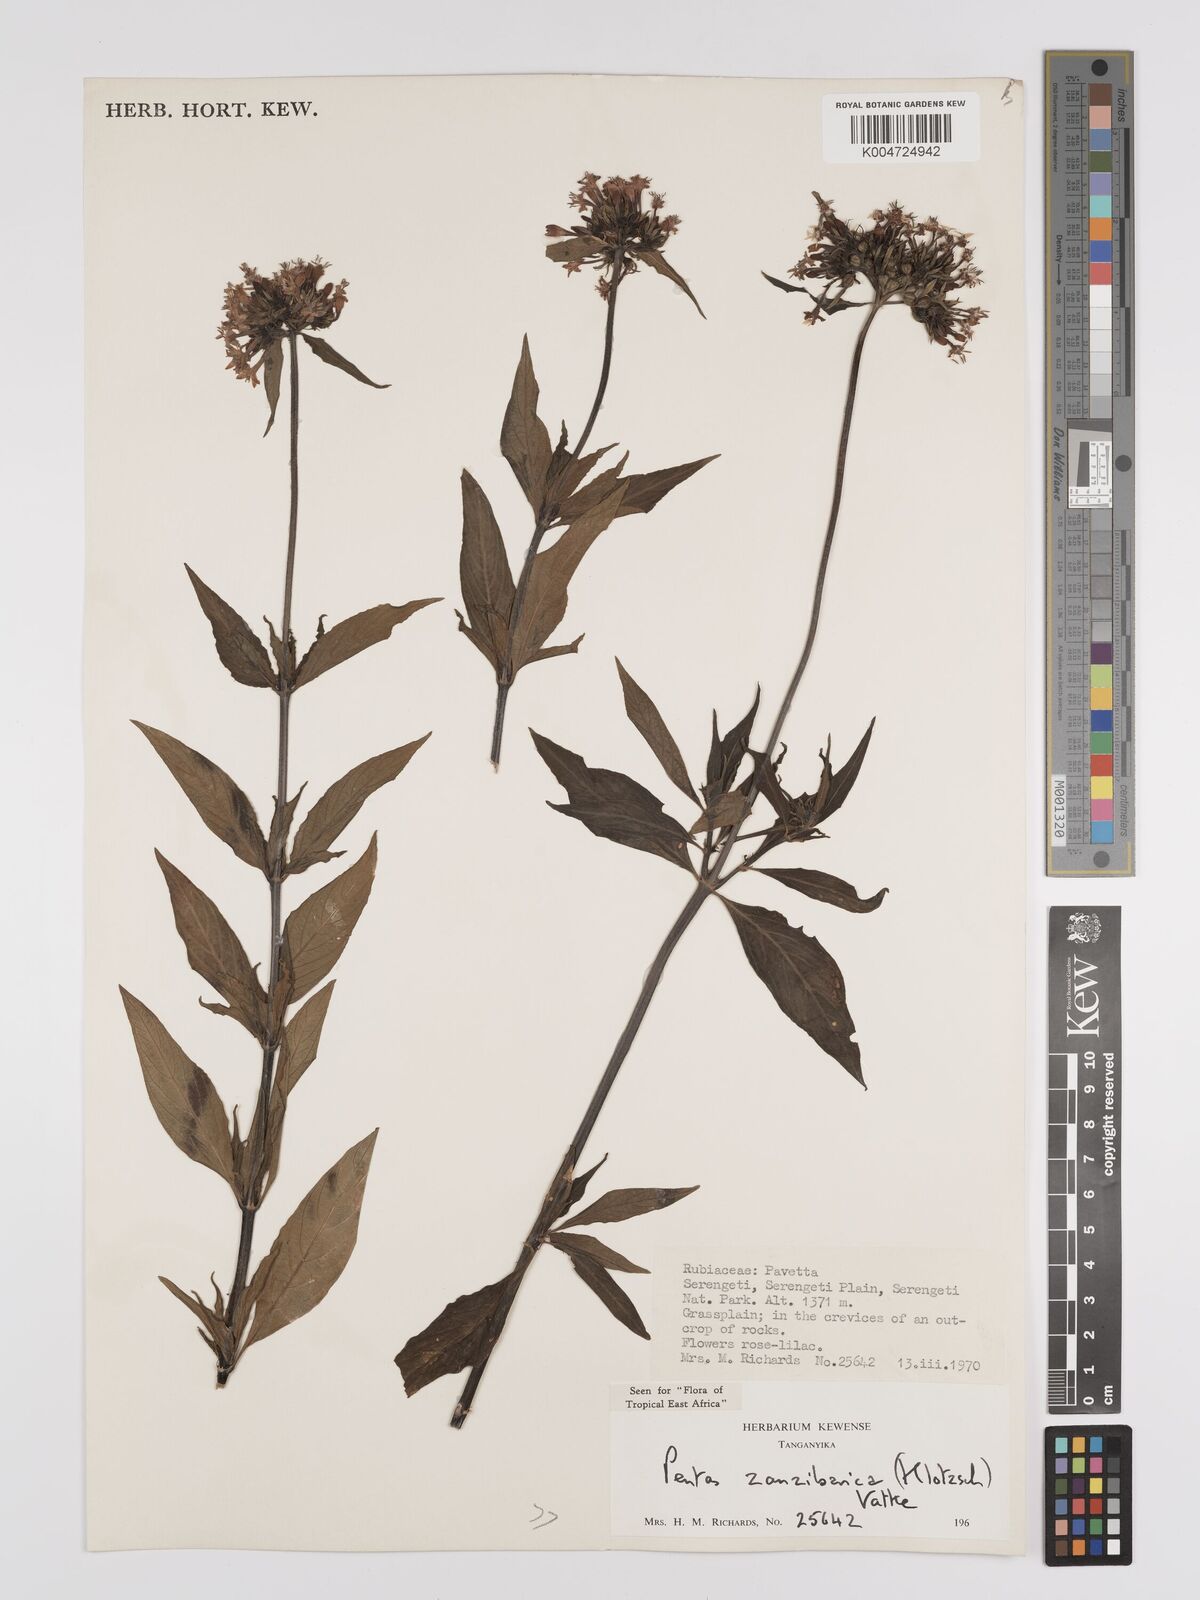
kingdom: Plantae
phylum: Tracheophyta
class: Magnoliopsida
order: Gentianales
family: Rubiaceae
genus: Pentas
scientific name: Pentas zanzibarica
